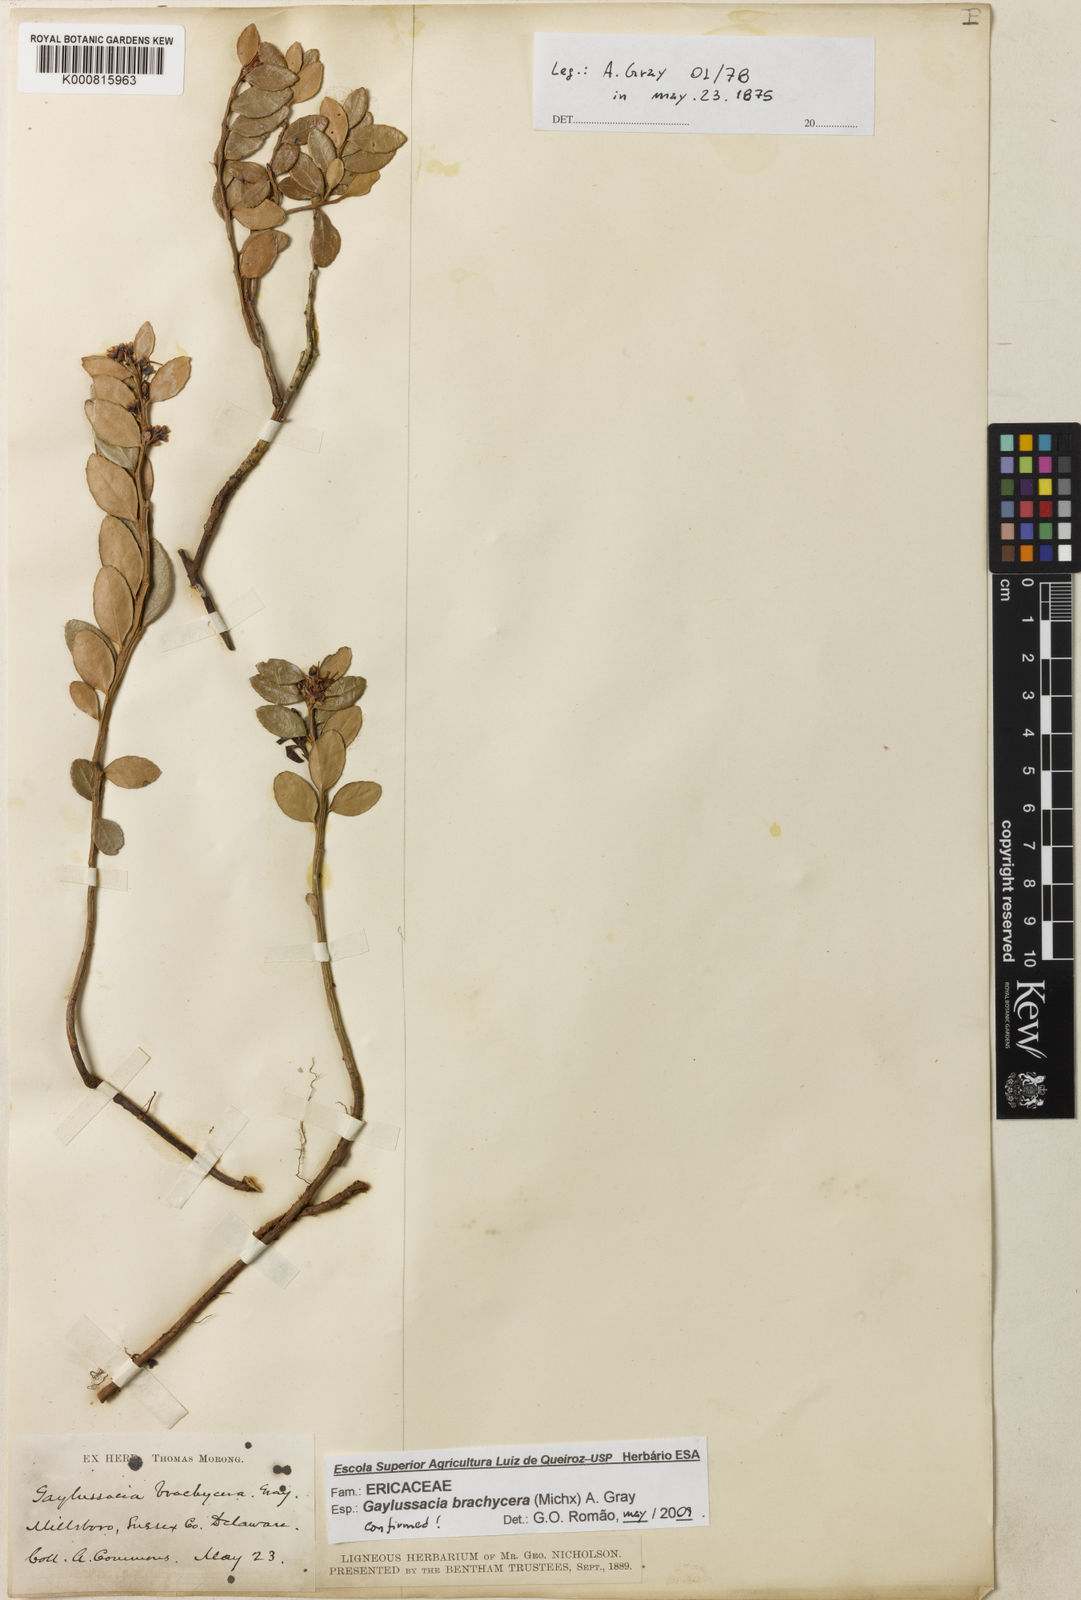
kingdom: Plantae
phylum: Tracheophyta
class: Magnoliopsida
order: Ericales
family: Ericaceae
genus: Gaylussacia
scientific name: Gaylussacia brachycera
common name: Box huckleberry
